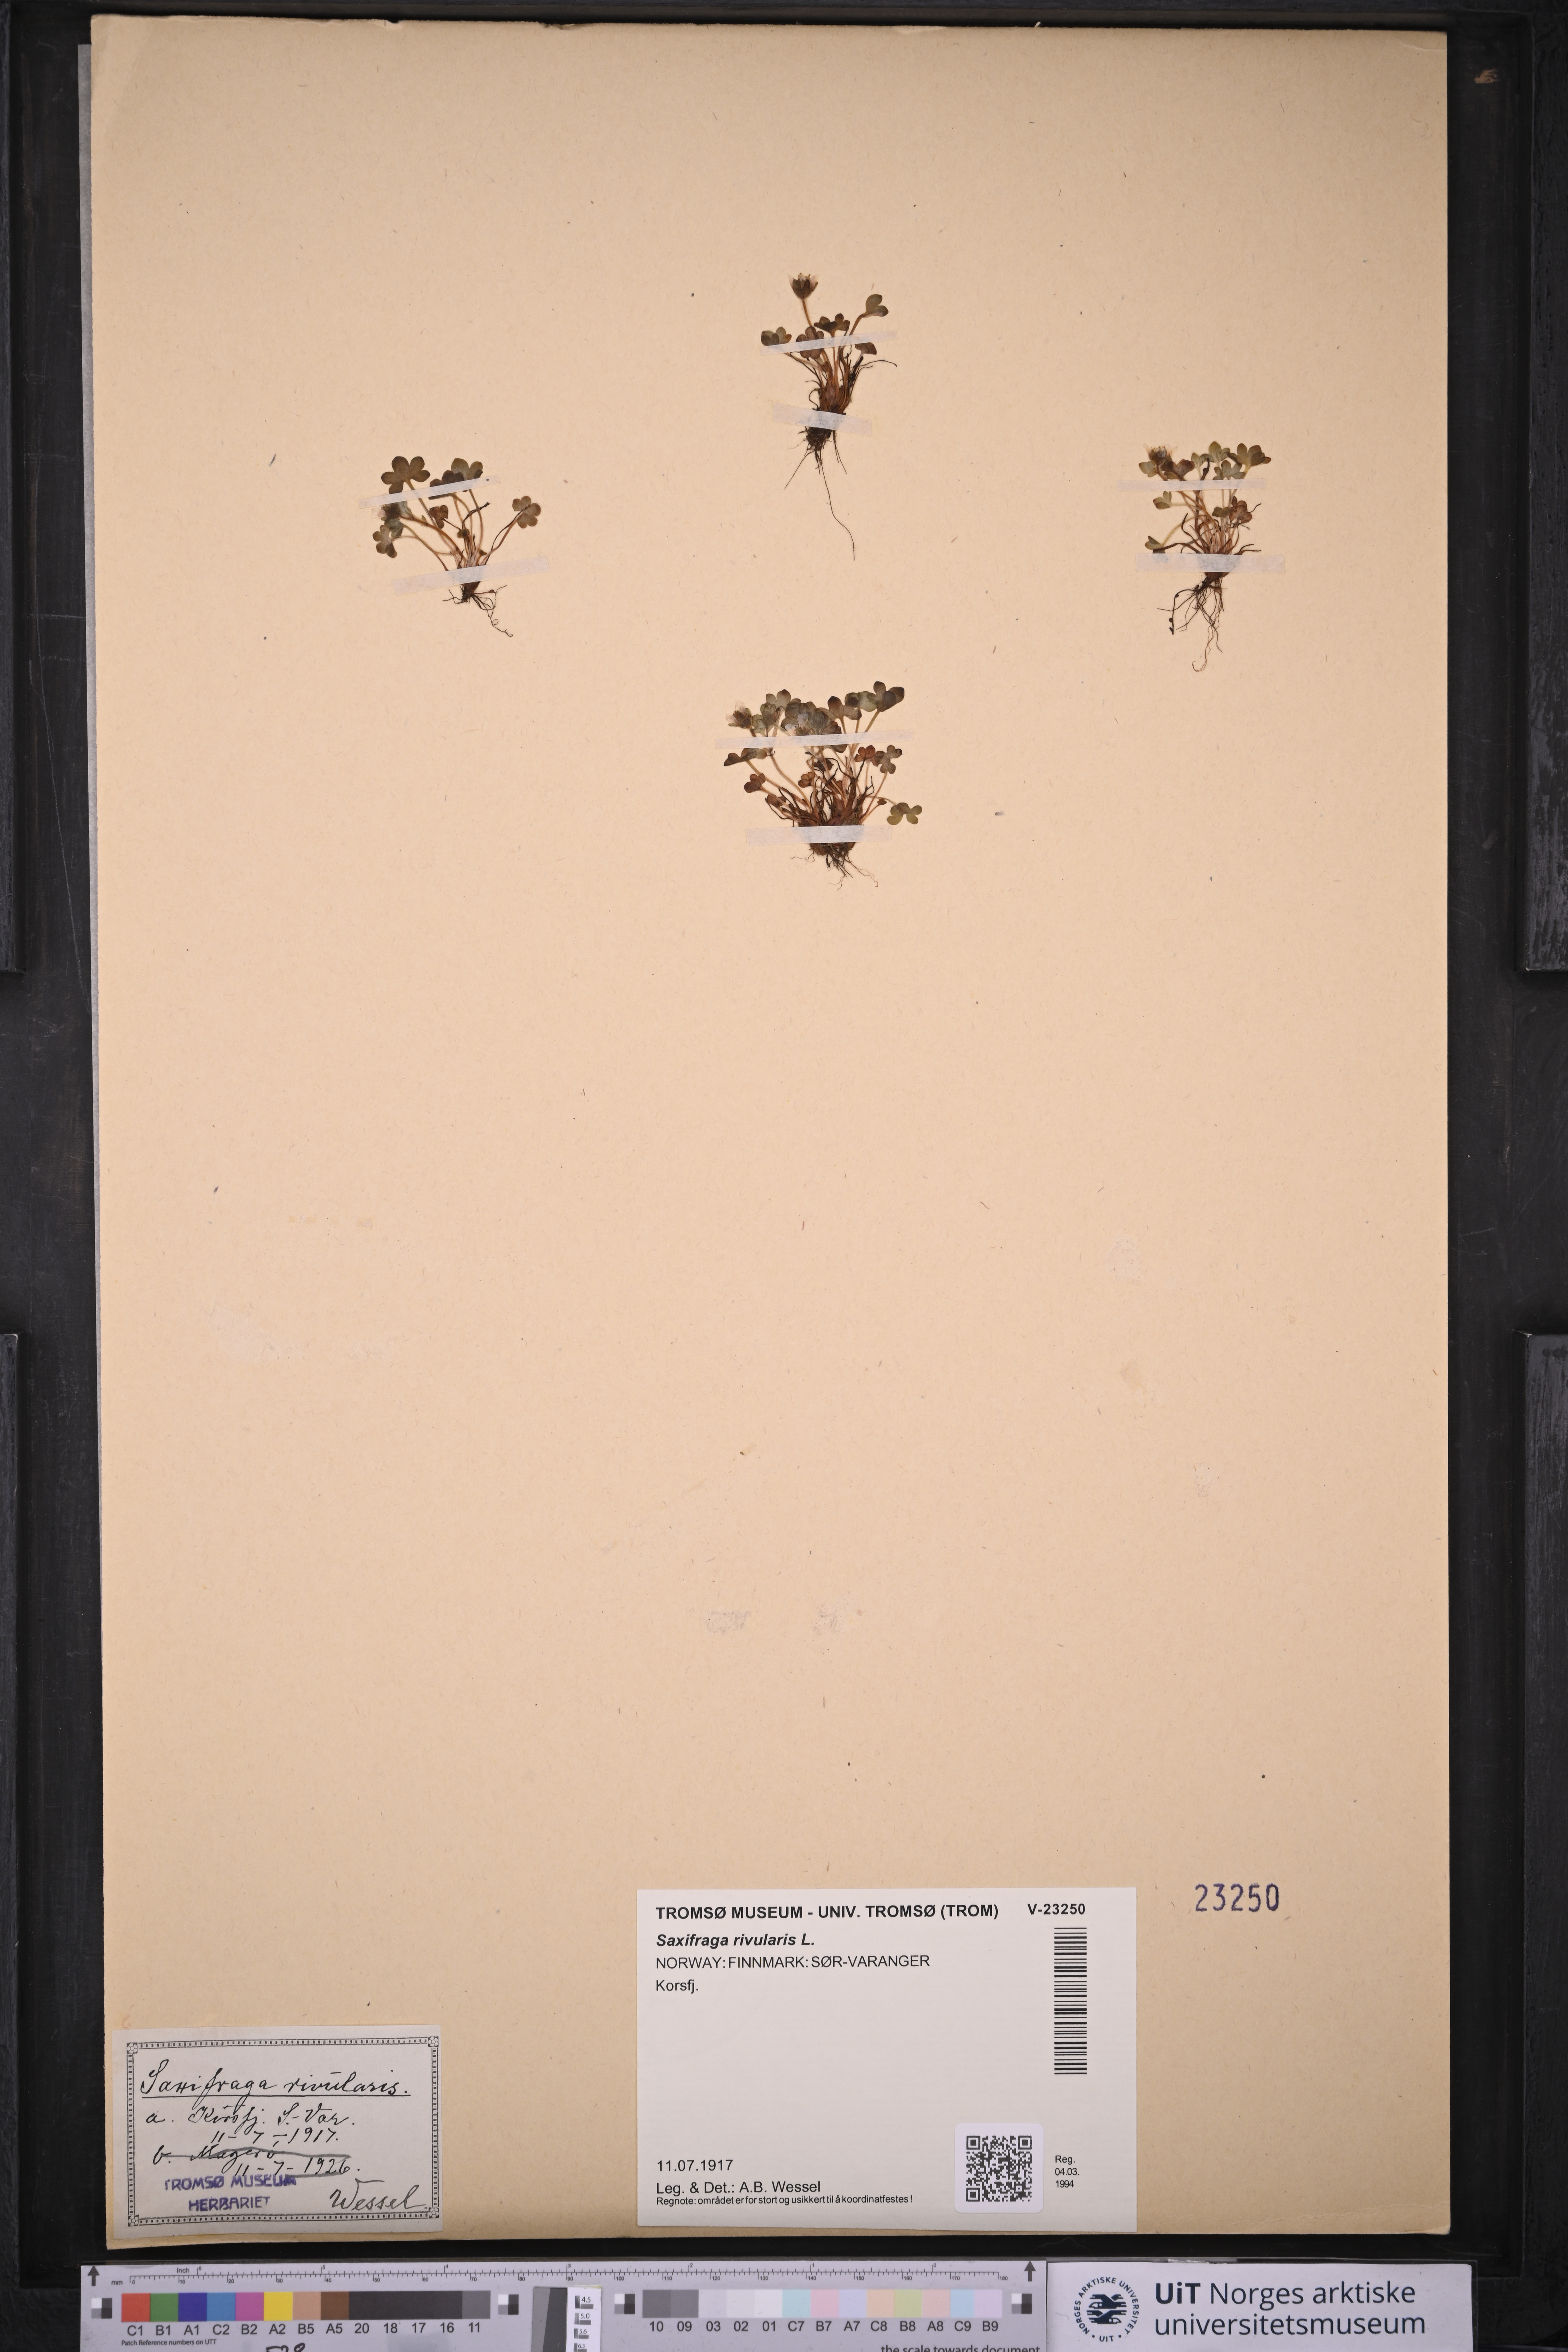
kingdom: Plantae
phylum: Tracheophyta
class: Magnoliopsida
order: Saxifragales
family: Saxifragaceae
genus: Saxifraga
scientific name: Saxifraga rivularis
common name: Highland saxifrage
